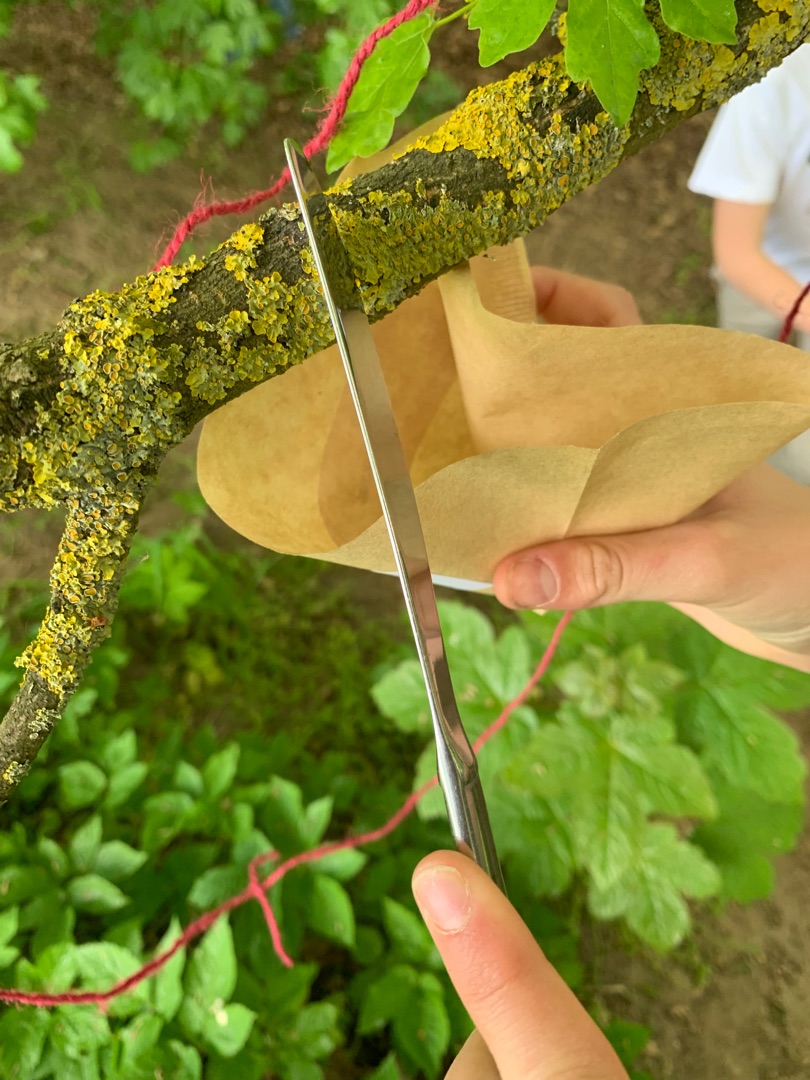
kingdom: Fungi
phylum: Ascomycota
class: Lecanoromycetes
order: Teloschistales
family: Teloschistaceae
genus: Xanthoria
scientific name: Xanthoria parietina
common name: Almindelig væggelav
